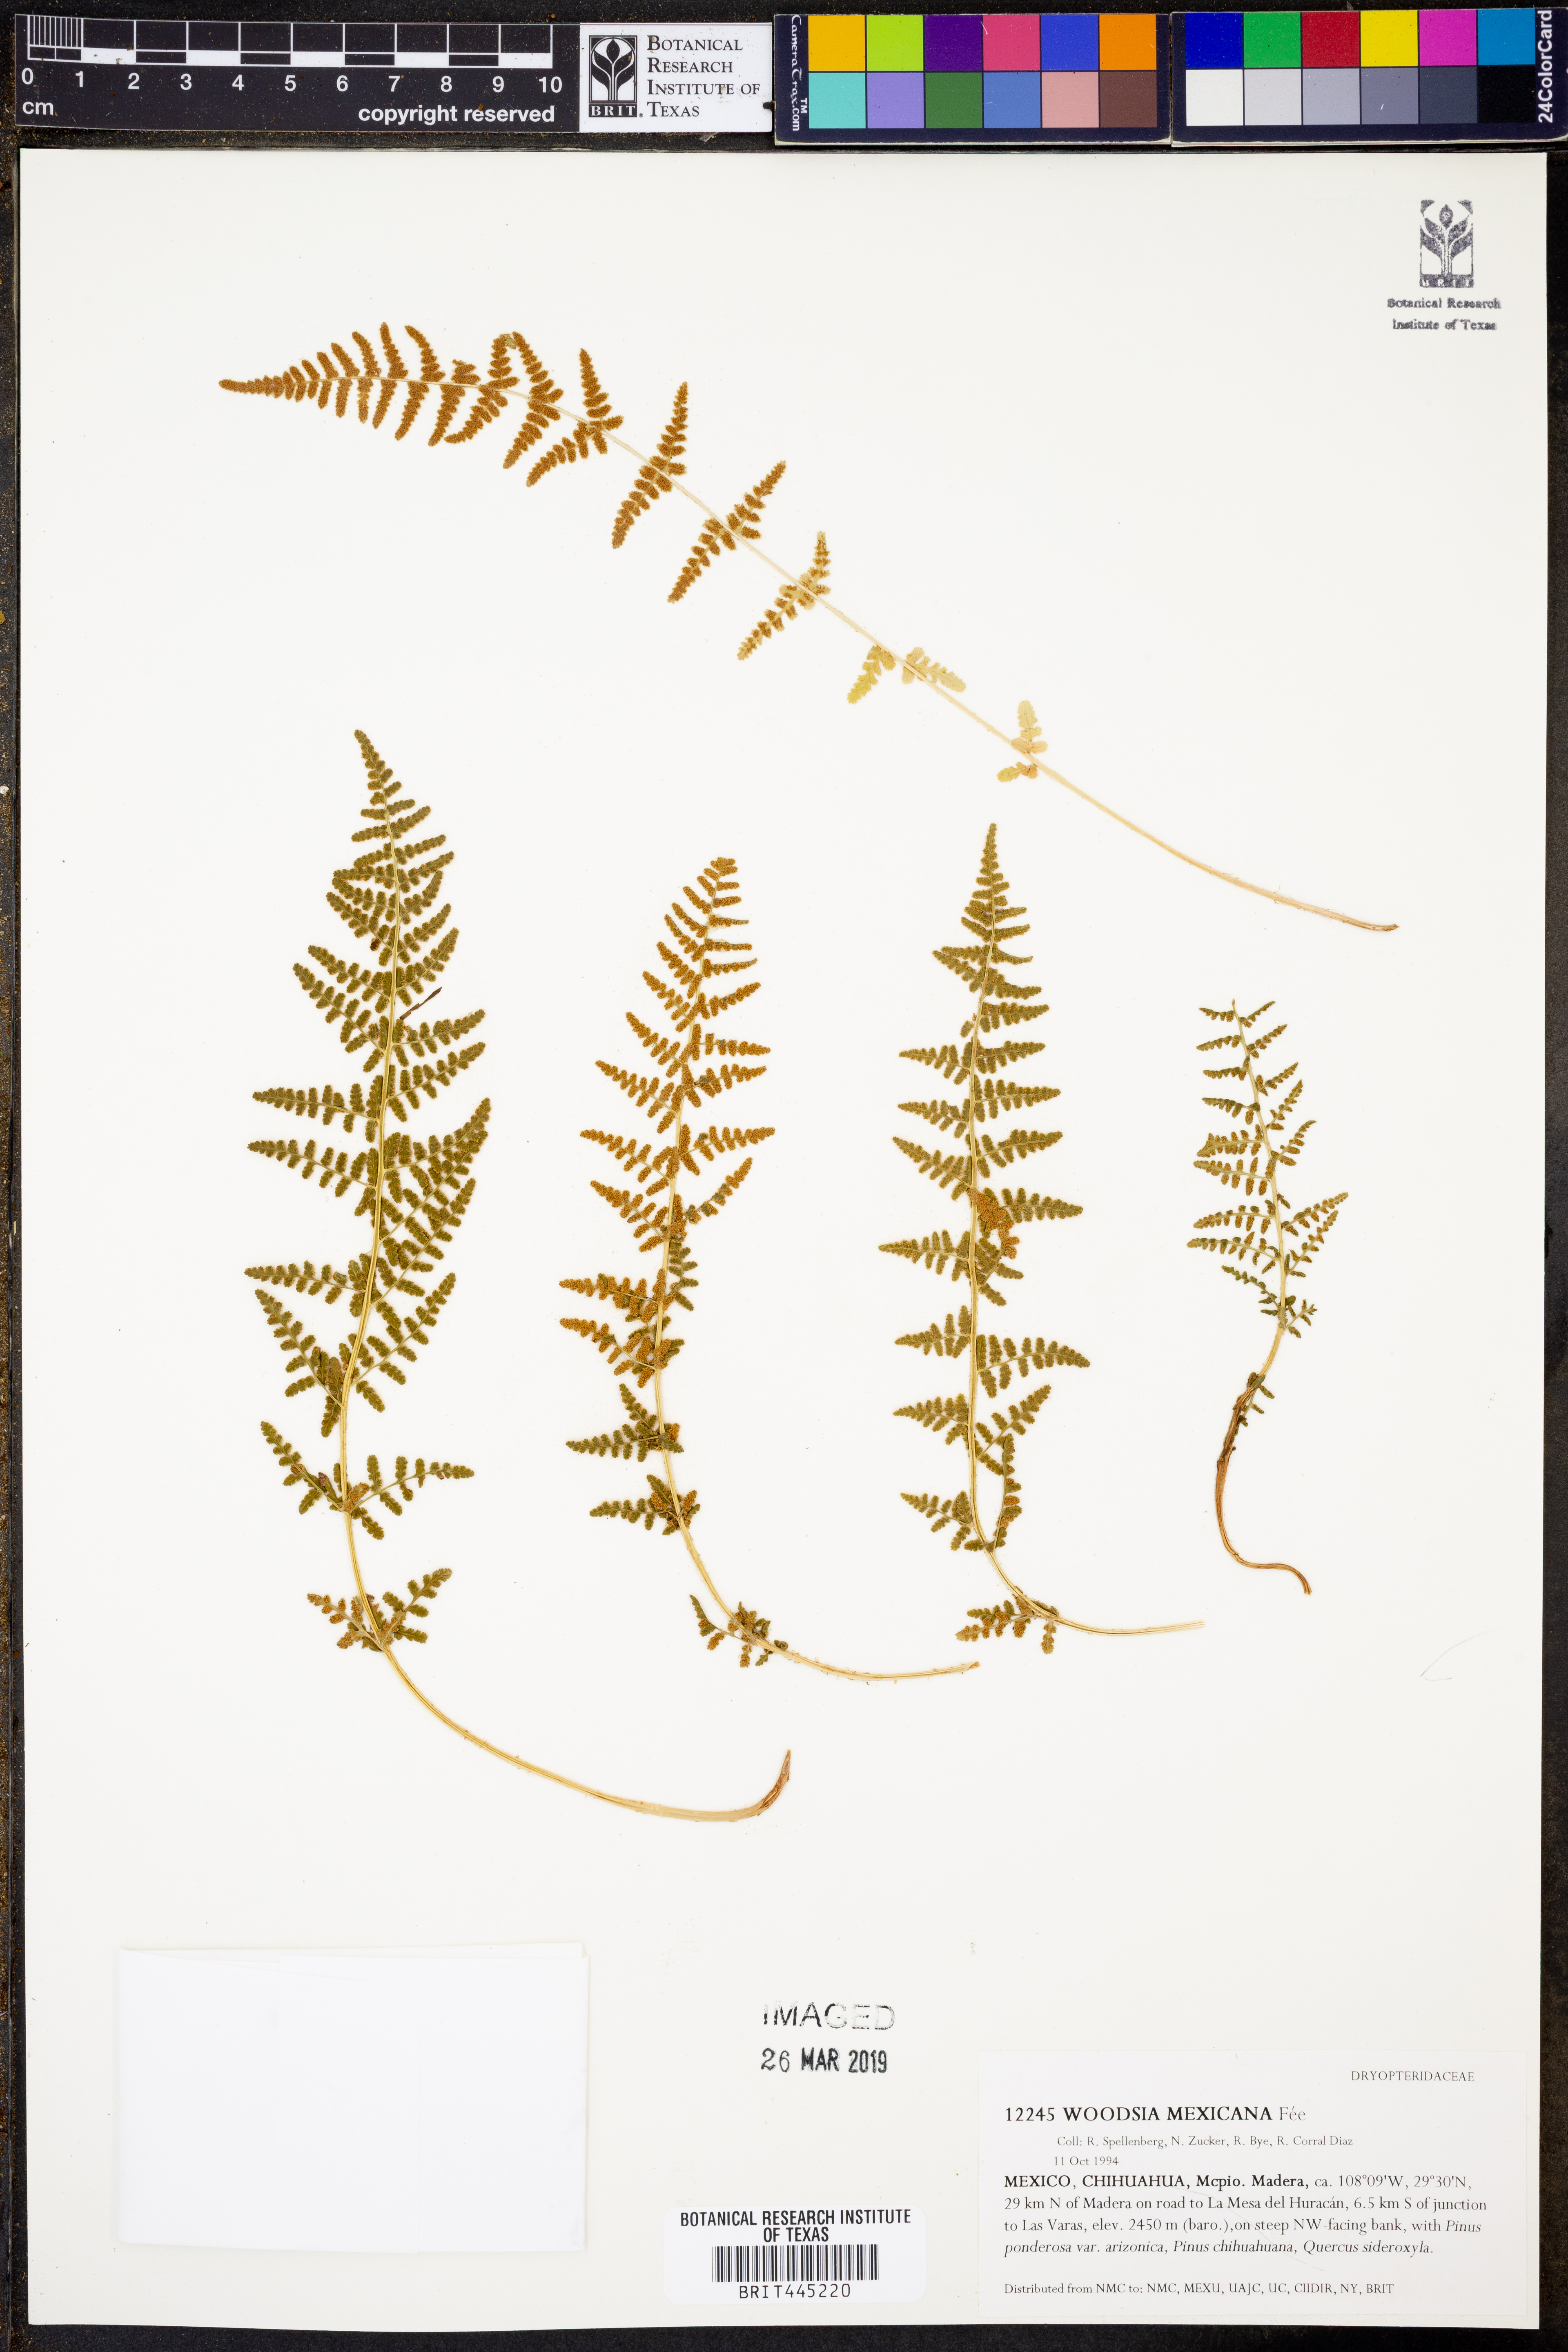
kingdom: Plantae
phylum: Tracheophyta
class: Polypodiopsida
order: Polypodiales
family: Woodsiaceae
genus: Physematium
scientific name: Physematium mexicanum
